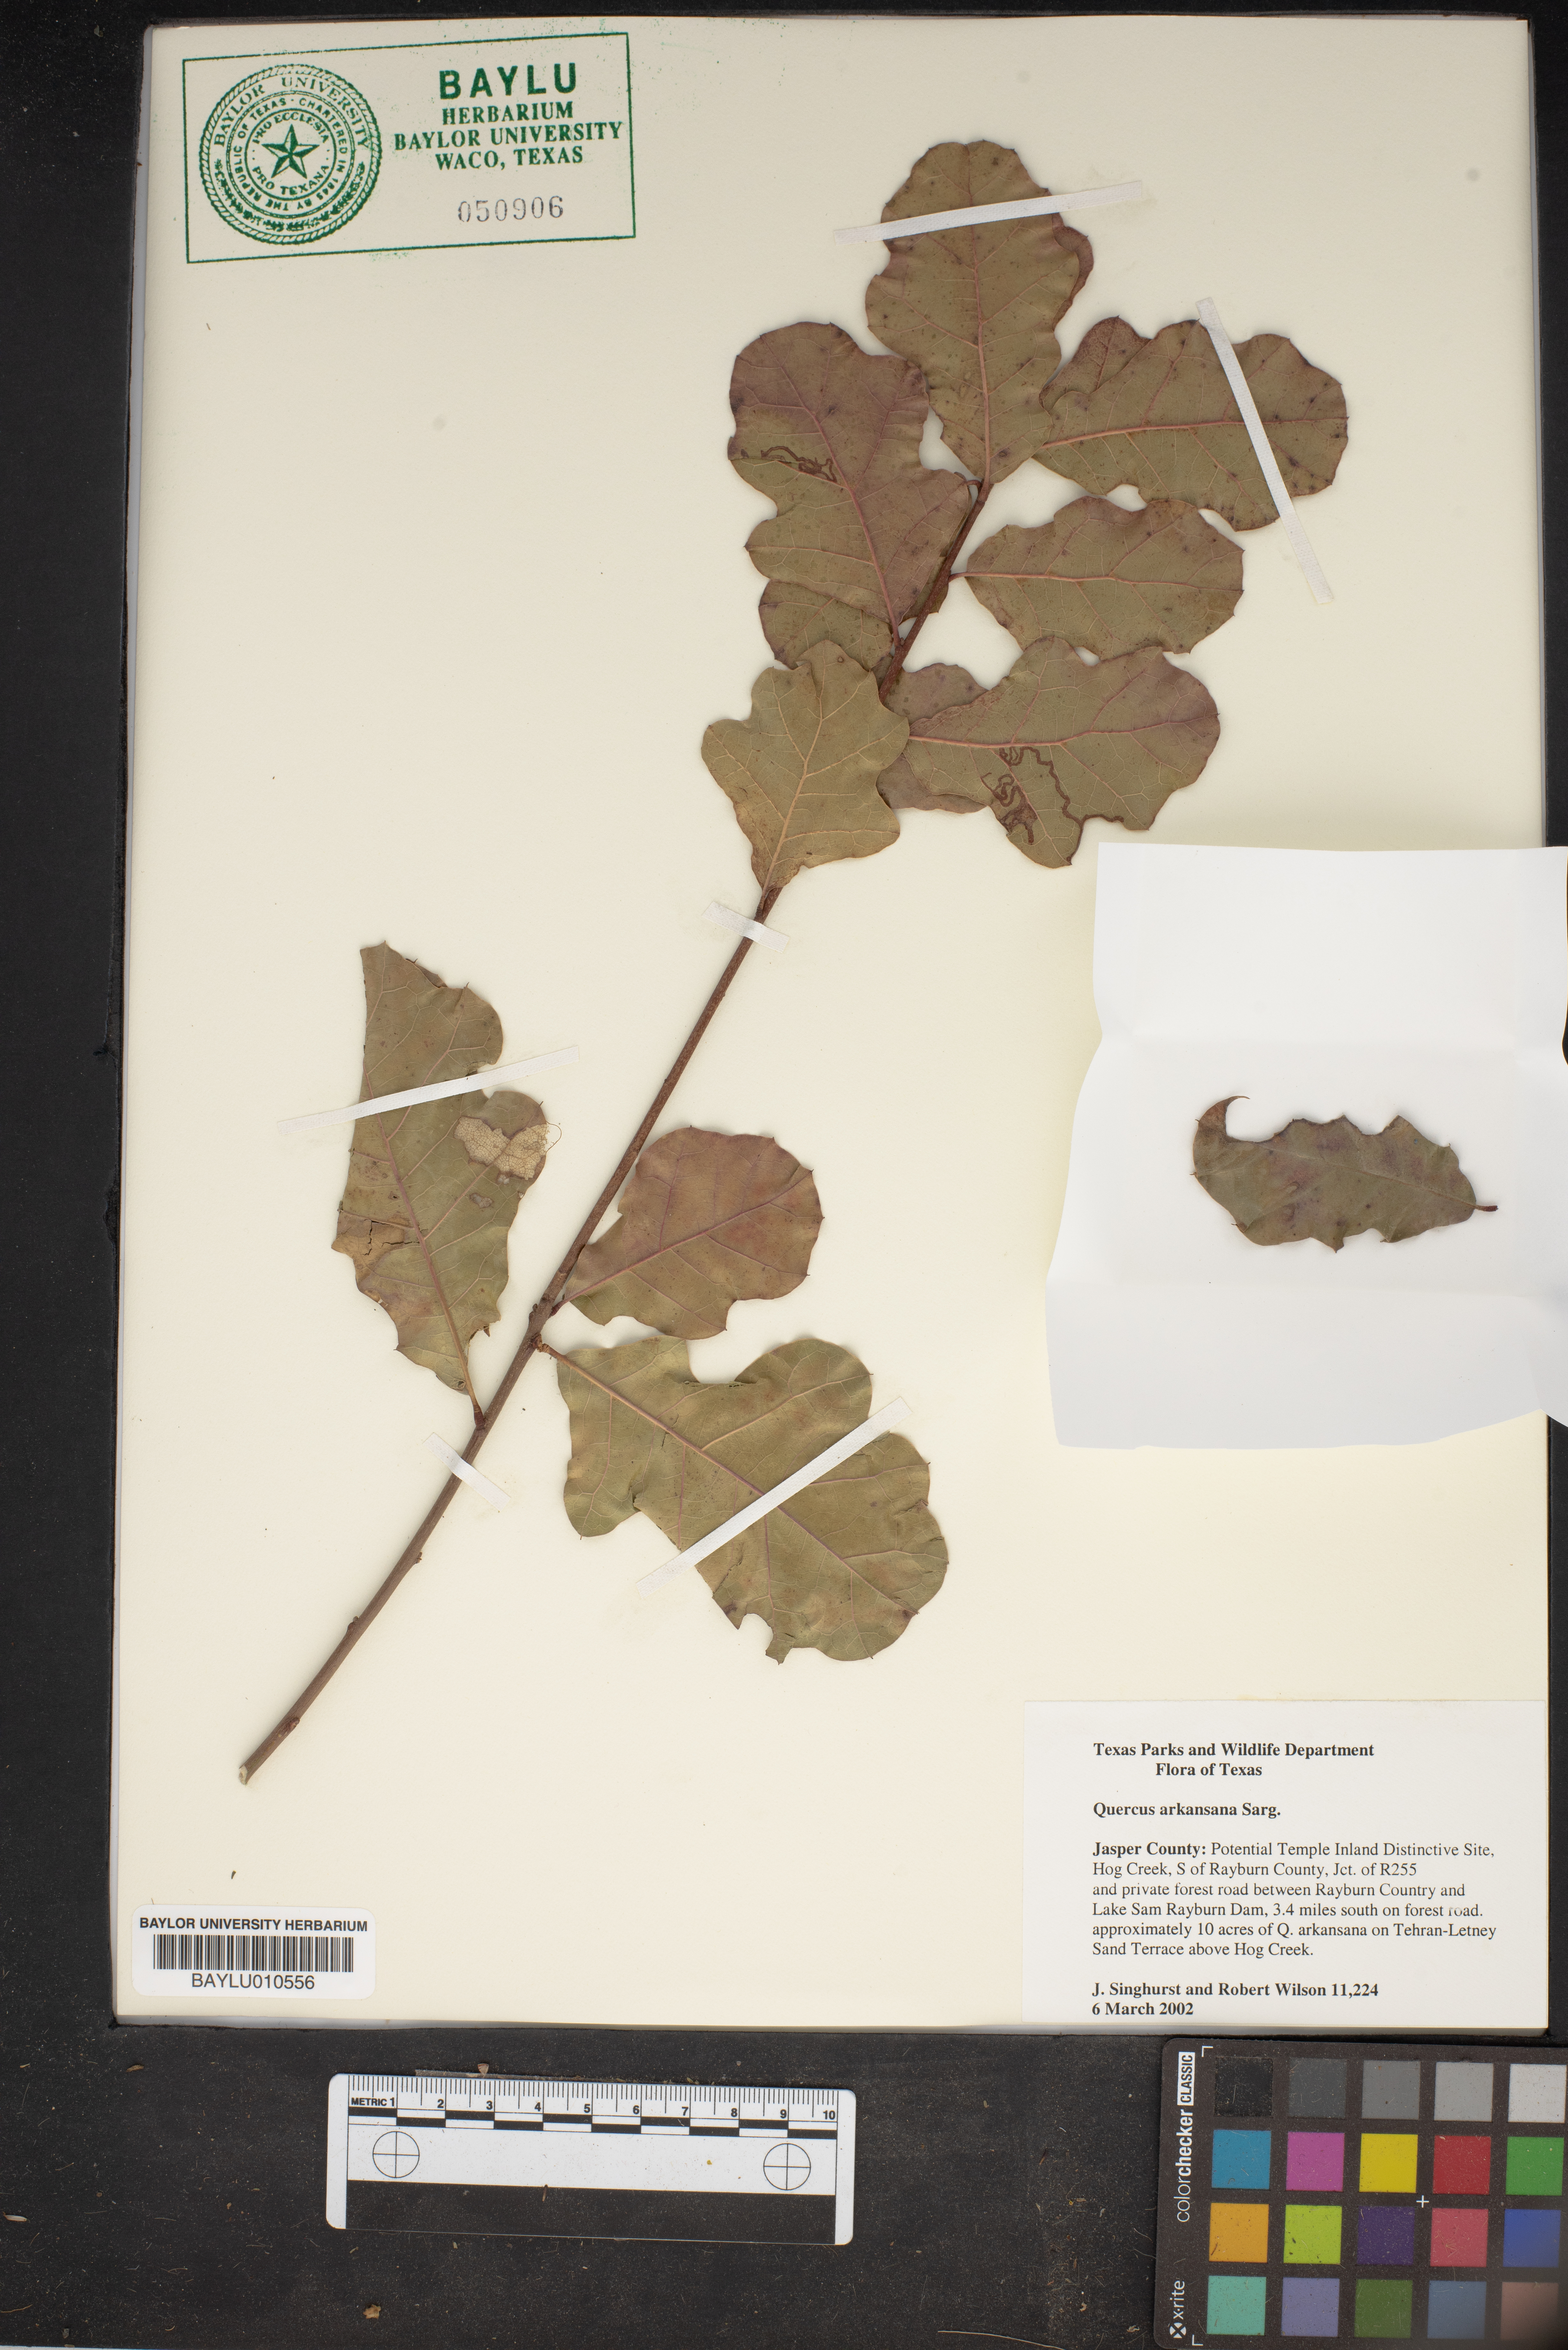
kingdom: Plantae
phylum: Tracheophyta
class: Magnoliopsida
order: Fagales
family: Fagaceae
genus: Quercus
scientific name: Quercus arkansana
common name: Arkansas oak
